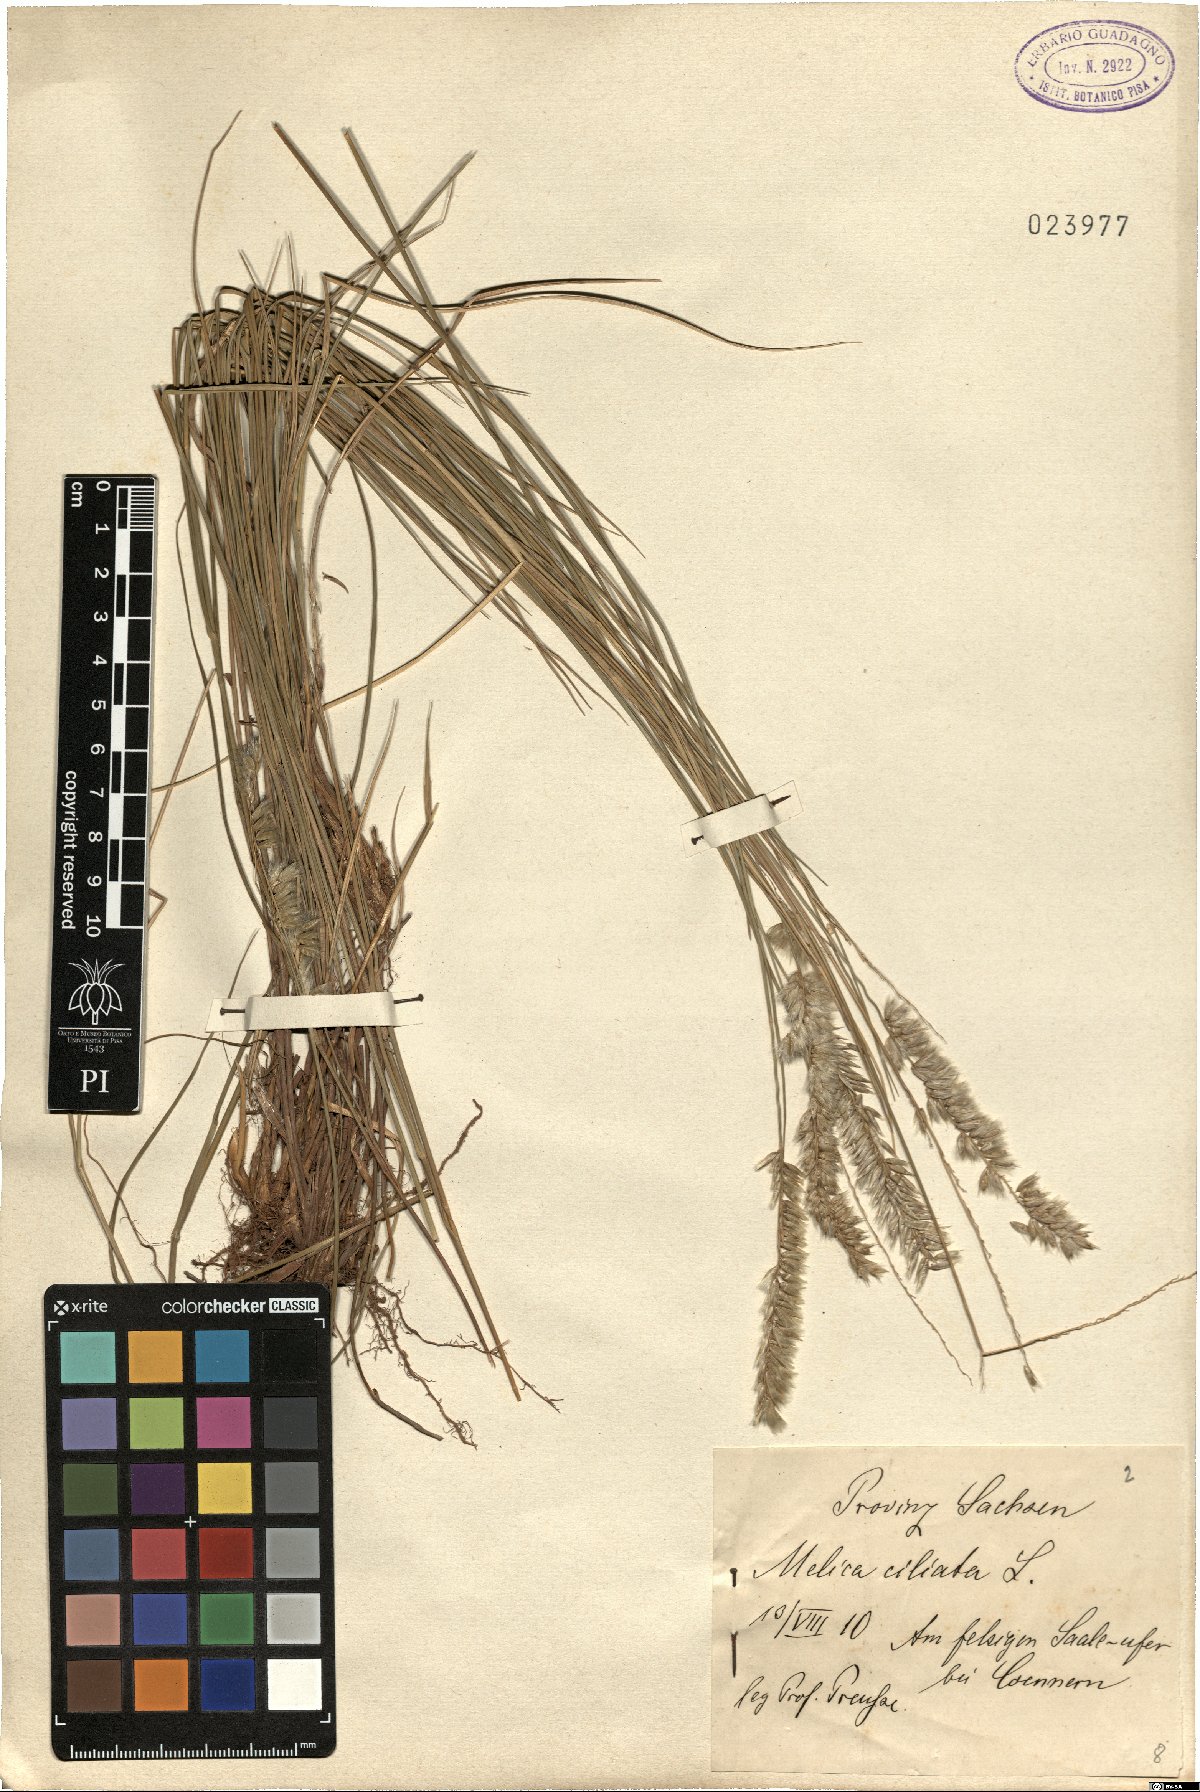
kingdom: Plantae
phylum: Tracheophyta
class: Liliopsida
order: Poales
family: Poaceae
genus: Melica
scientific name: Melica ciliata
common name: Hairy melicgrass
